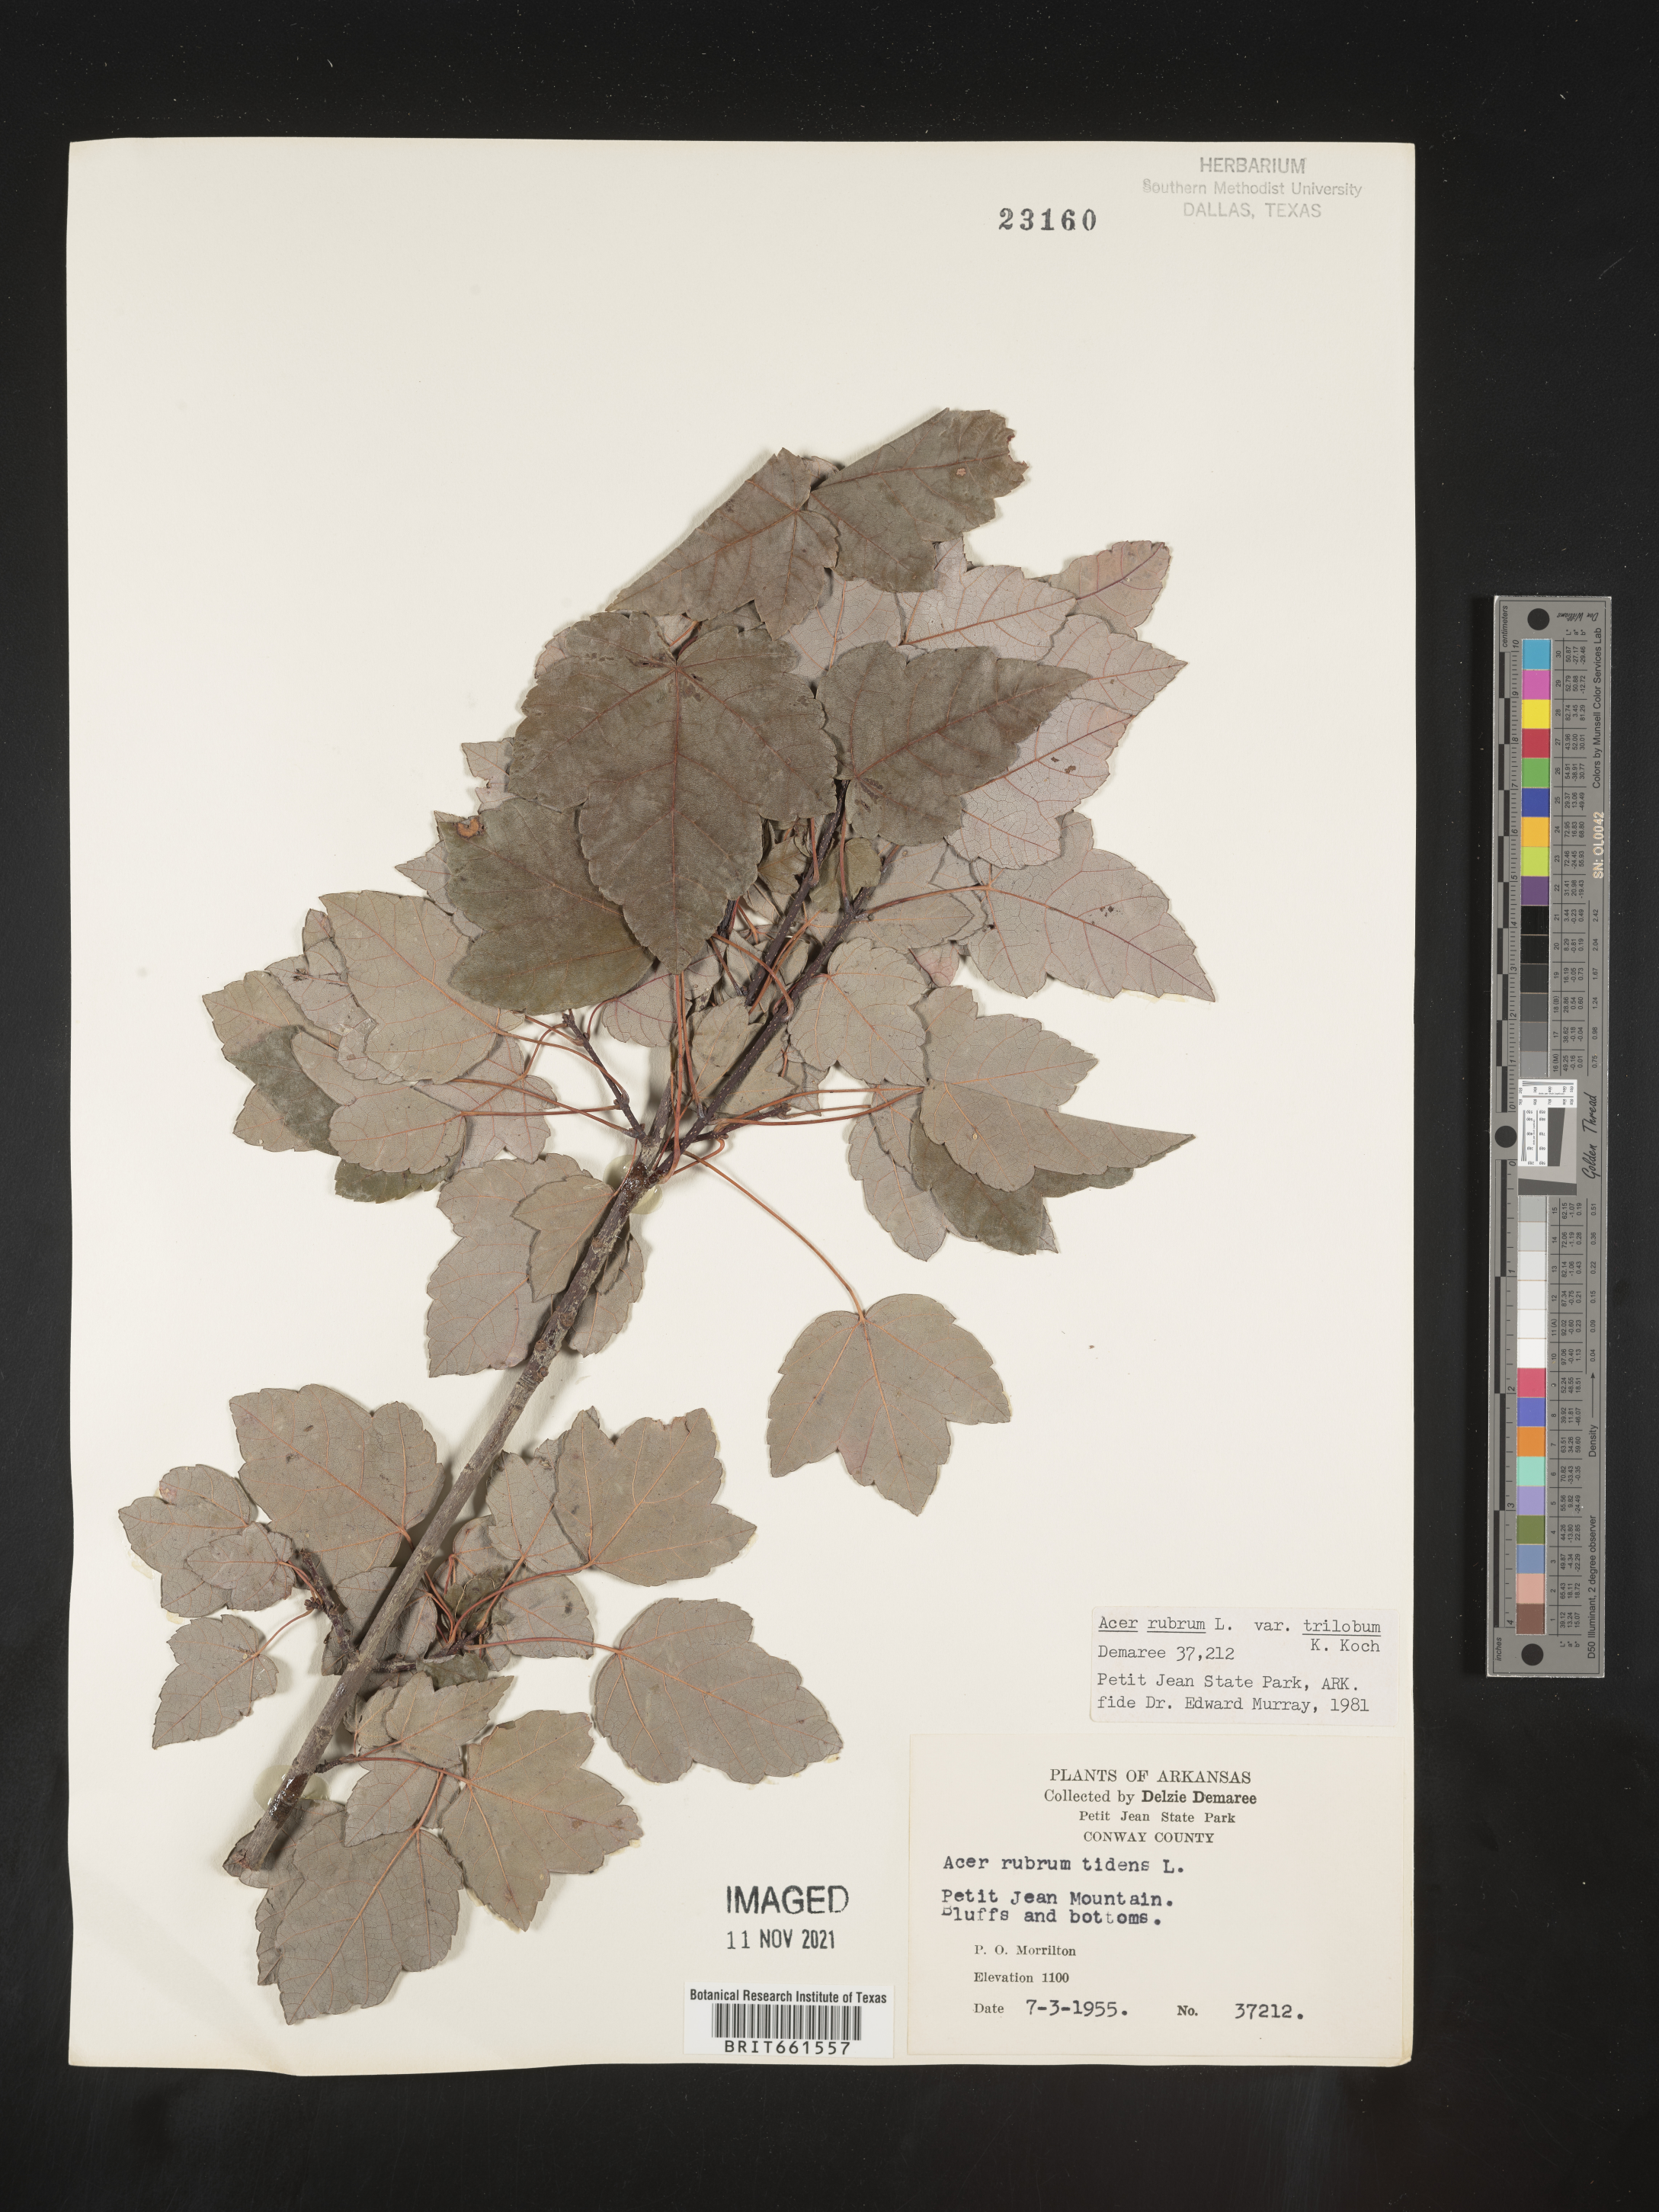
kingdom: Plantae
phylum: Tracheophyta
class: Magnoliopsida
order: Sapindales
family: Sapindaceae
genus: Acer
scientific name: Acer rubrum
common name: Red maple
